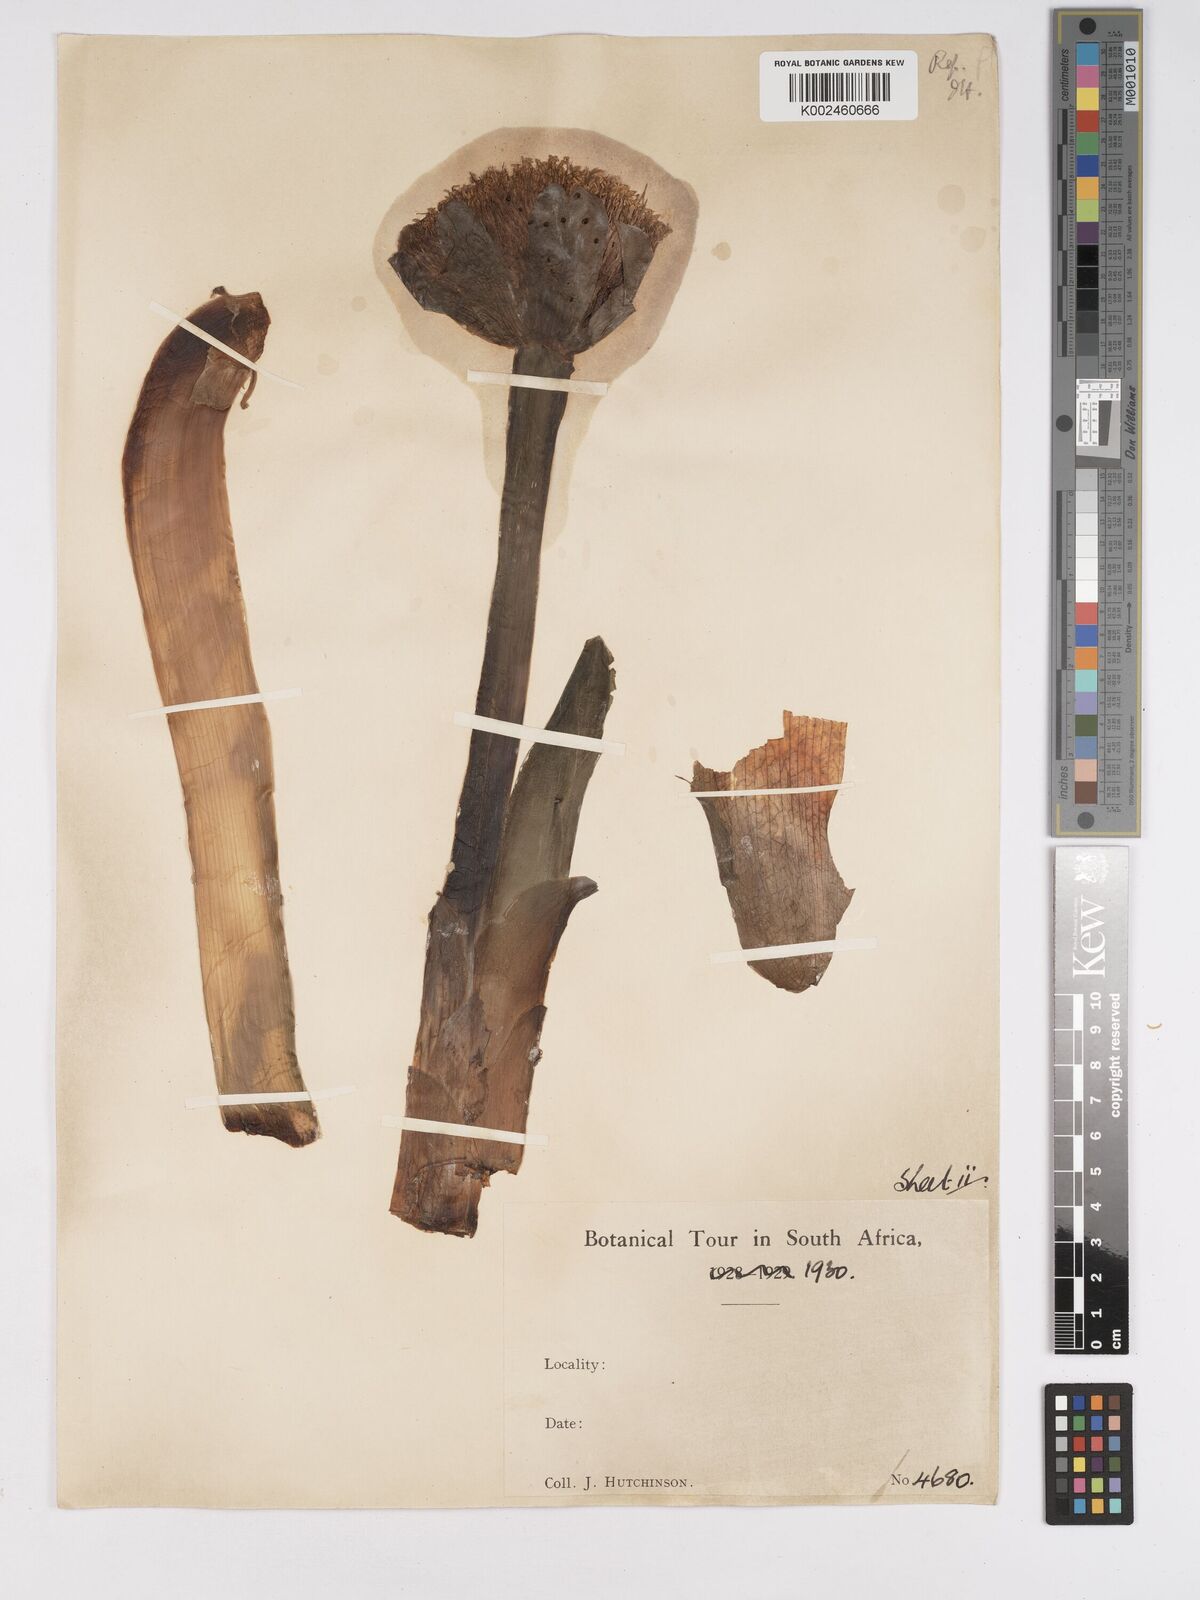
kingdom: Plantae
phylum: Tracheophyta
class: Liliopsida
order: Asparagales
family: Amaryllidaceae
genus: Scadoxus
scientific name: Scadoxus puniceus
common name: Royal-paintbrush
